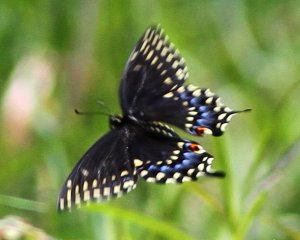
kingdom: Animalia
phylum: Arthropoda
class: Insecta
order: Lepidoptera
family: Papilionidae
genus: Papilio
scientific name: Papilio polyxenes
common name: Black Swallowtail
